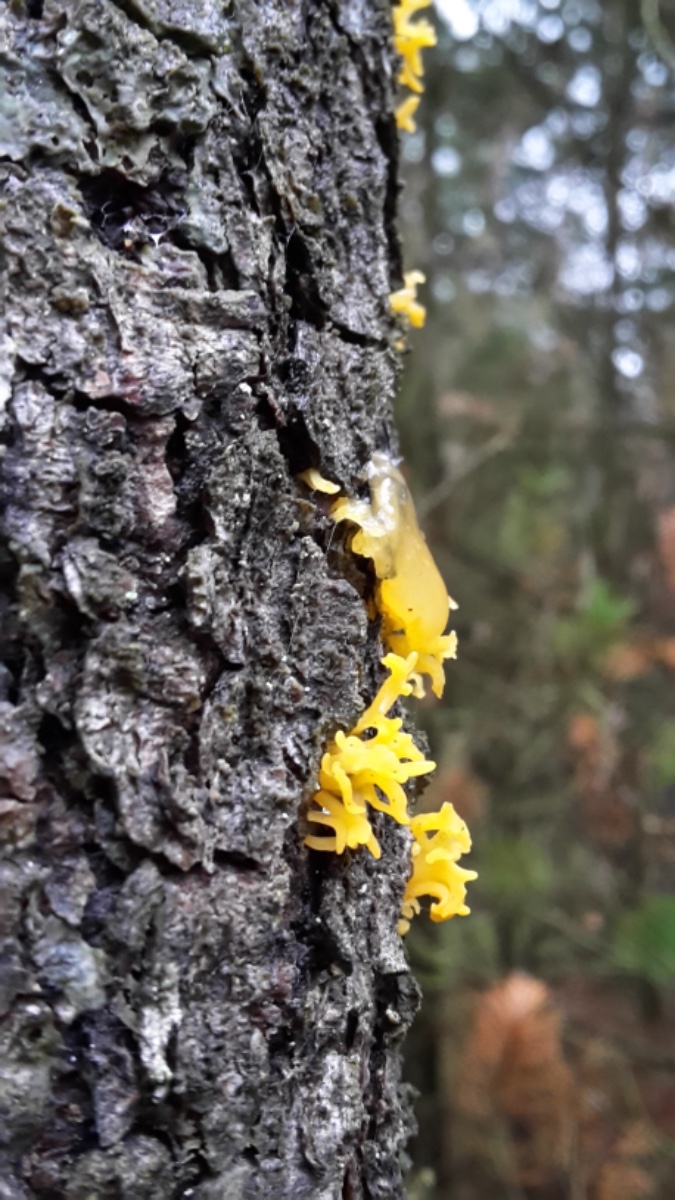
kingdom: Fungi
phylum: Basidiomycota
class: Dacrymycetes
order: Dacrymycetales
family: Dacrymycetaceae
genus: Calocera
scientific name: Calocera furcata
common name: fyrre-guldgaffel
